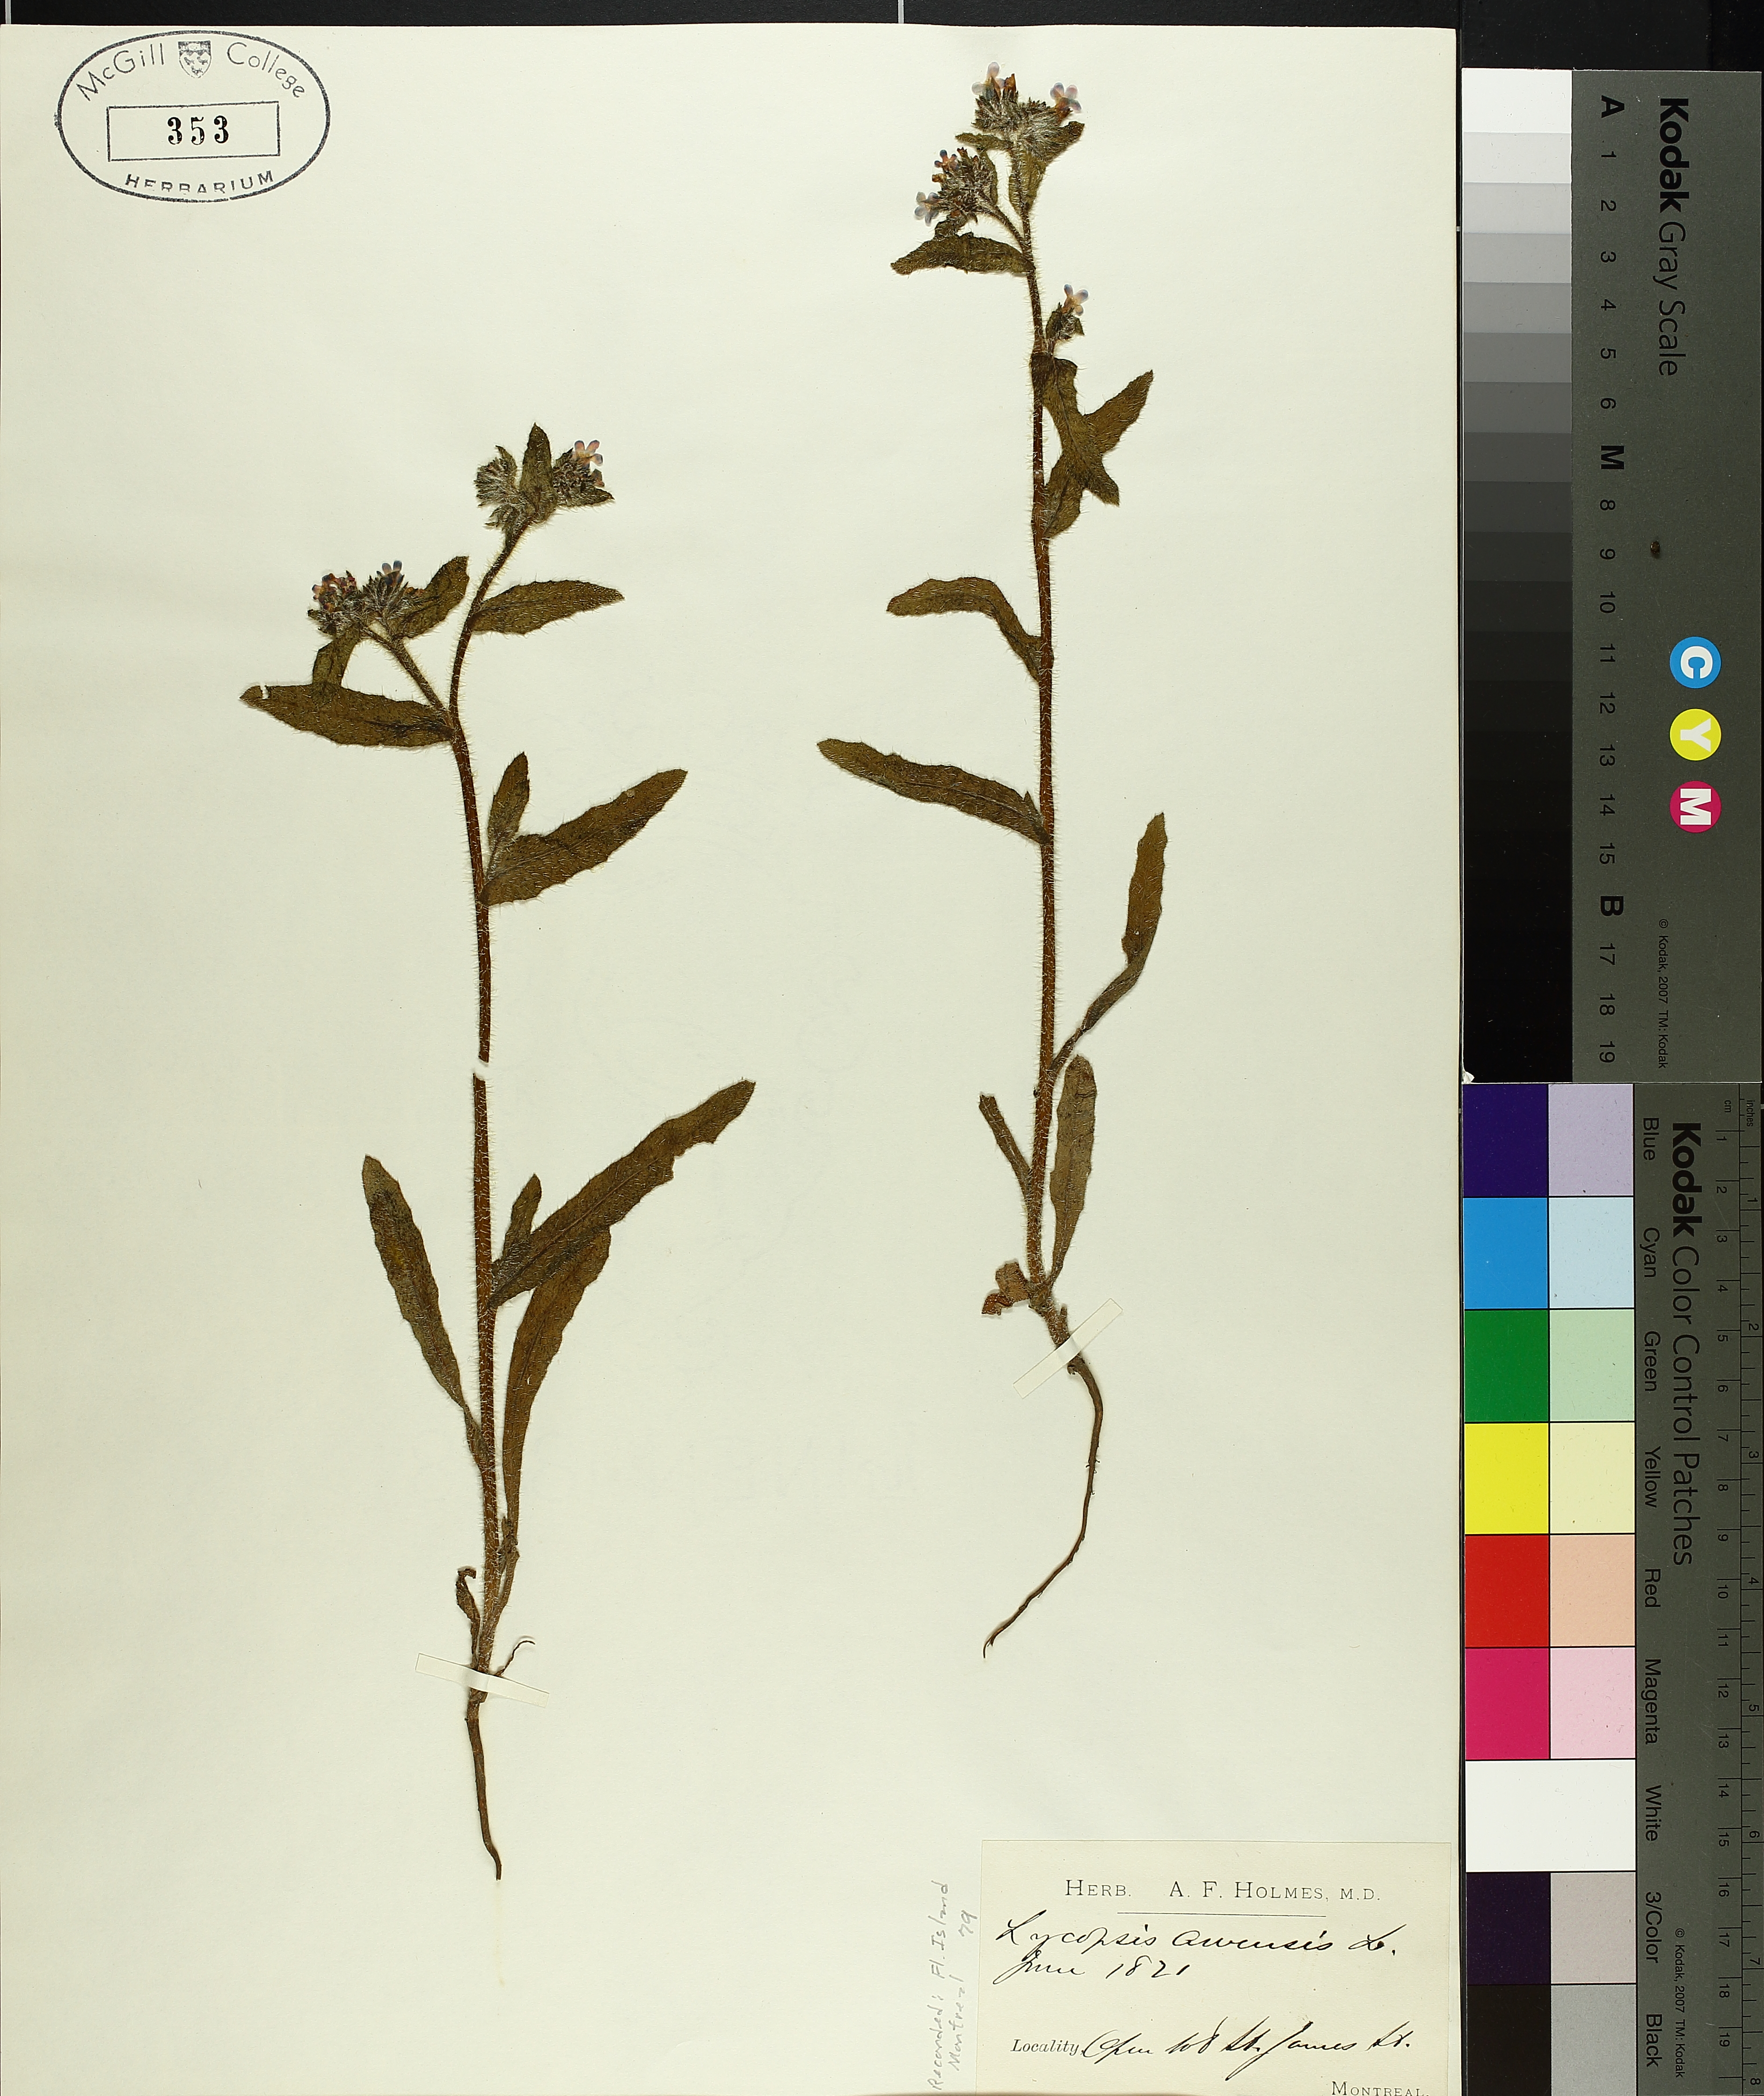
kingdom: Plantae
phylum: Tracheophyta
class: Magnoliopsida
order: Boraginales
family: Boraginaceae
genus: Lycopsis
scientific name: Lycopsis arvensis
